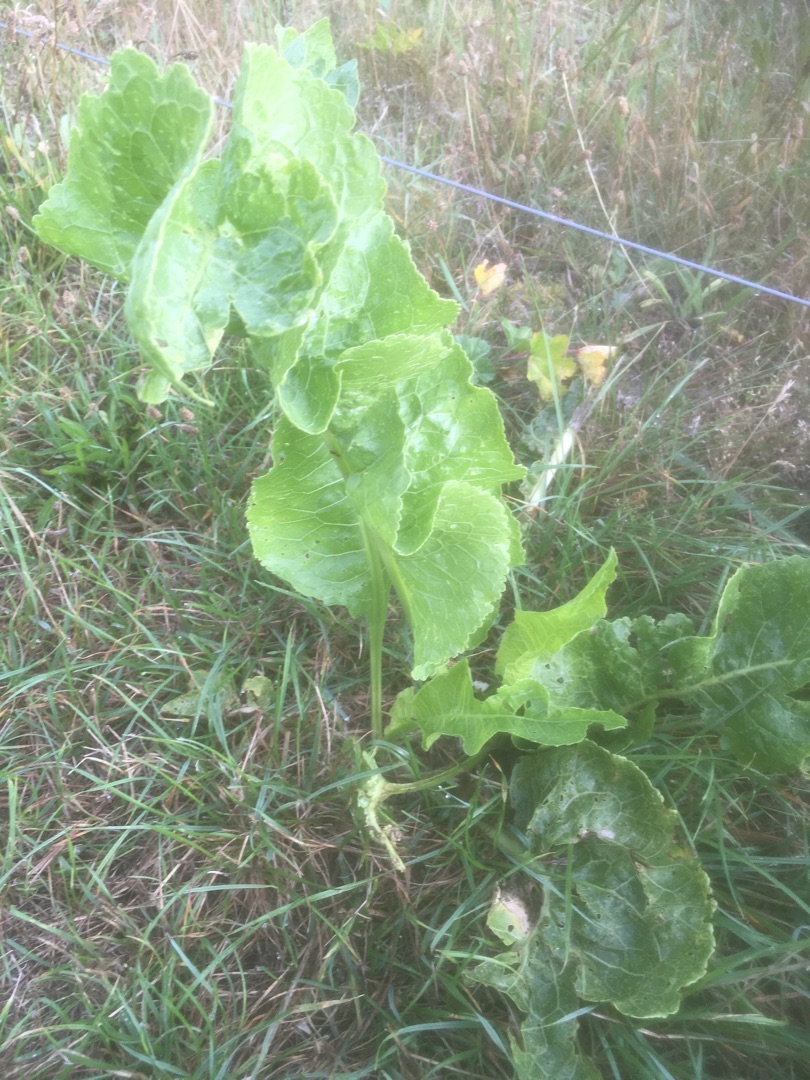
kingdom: Plantae
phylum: Tracheophyta
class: Magnoliopsida
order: Brassicales
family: Brassicaceae
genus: Armoracia
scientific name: Armoracia rusticana
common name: Peberrod
